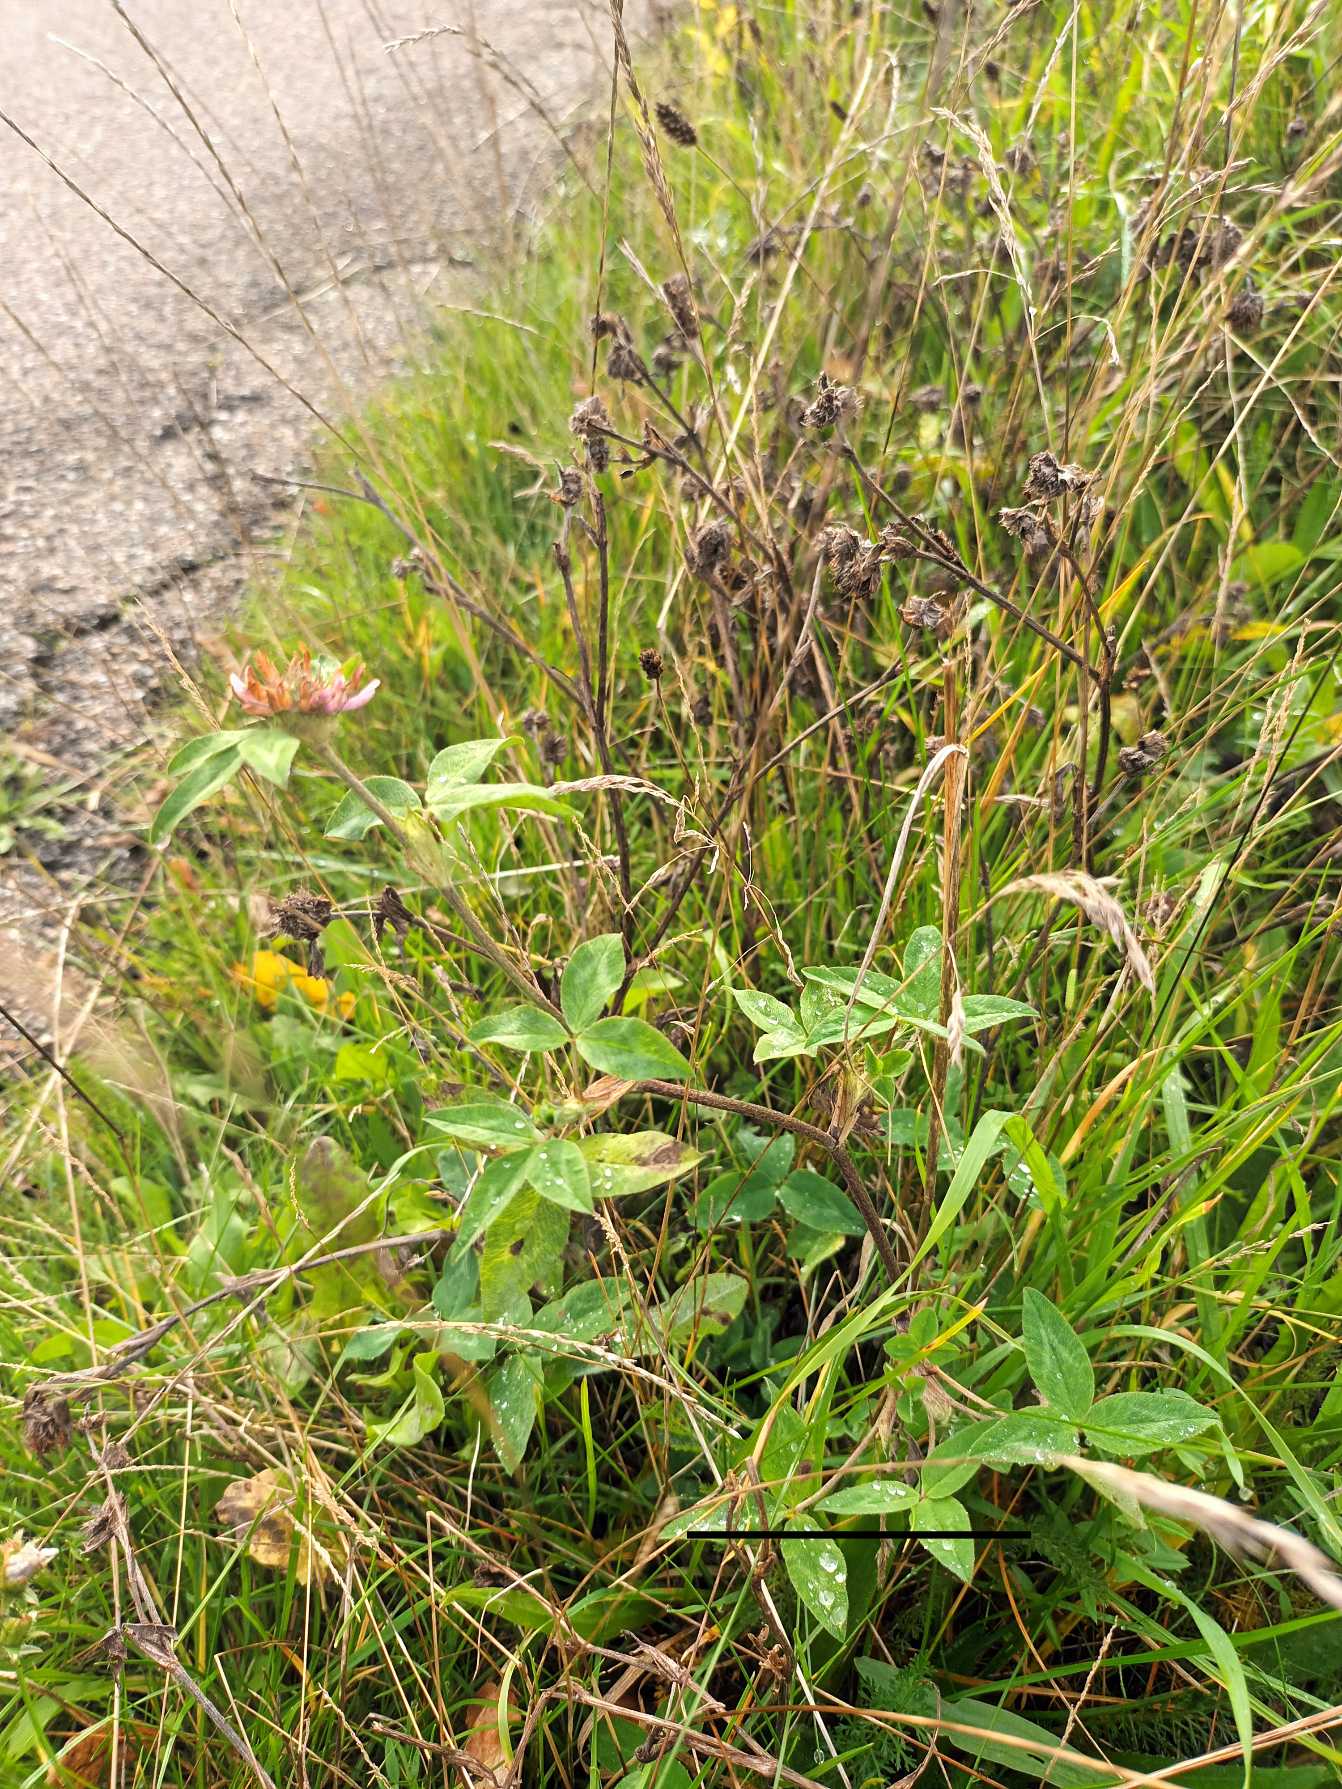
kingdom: Plantae
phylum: Tracheophyta
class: Magnoliopsida
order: Fabales
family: Fabaceae
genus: Trifolium
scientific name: Trifolium pratense
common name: Rød-kløver
